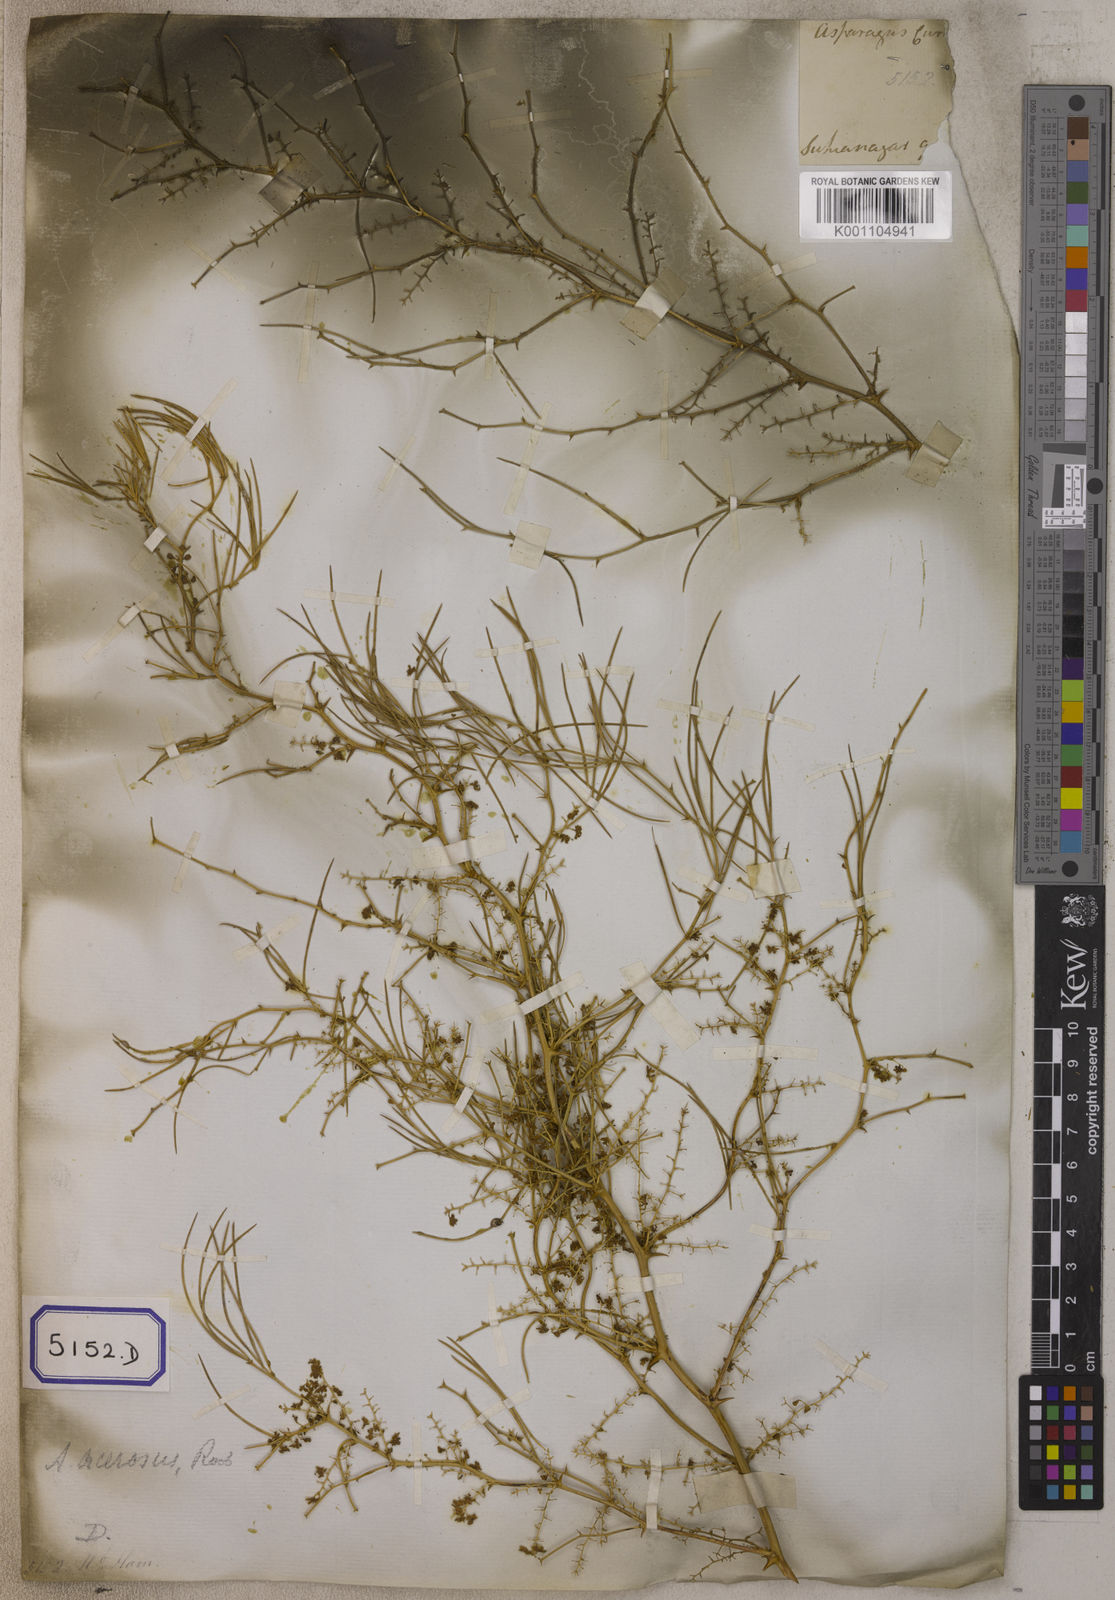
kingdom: Plantae
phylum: Tracheophyta
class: Liliopsida
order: Asparagales
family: Asparagaceae
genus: Asparagus
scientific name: Asparagus racemosus
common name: Asparagus-fern
